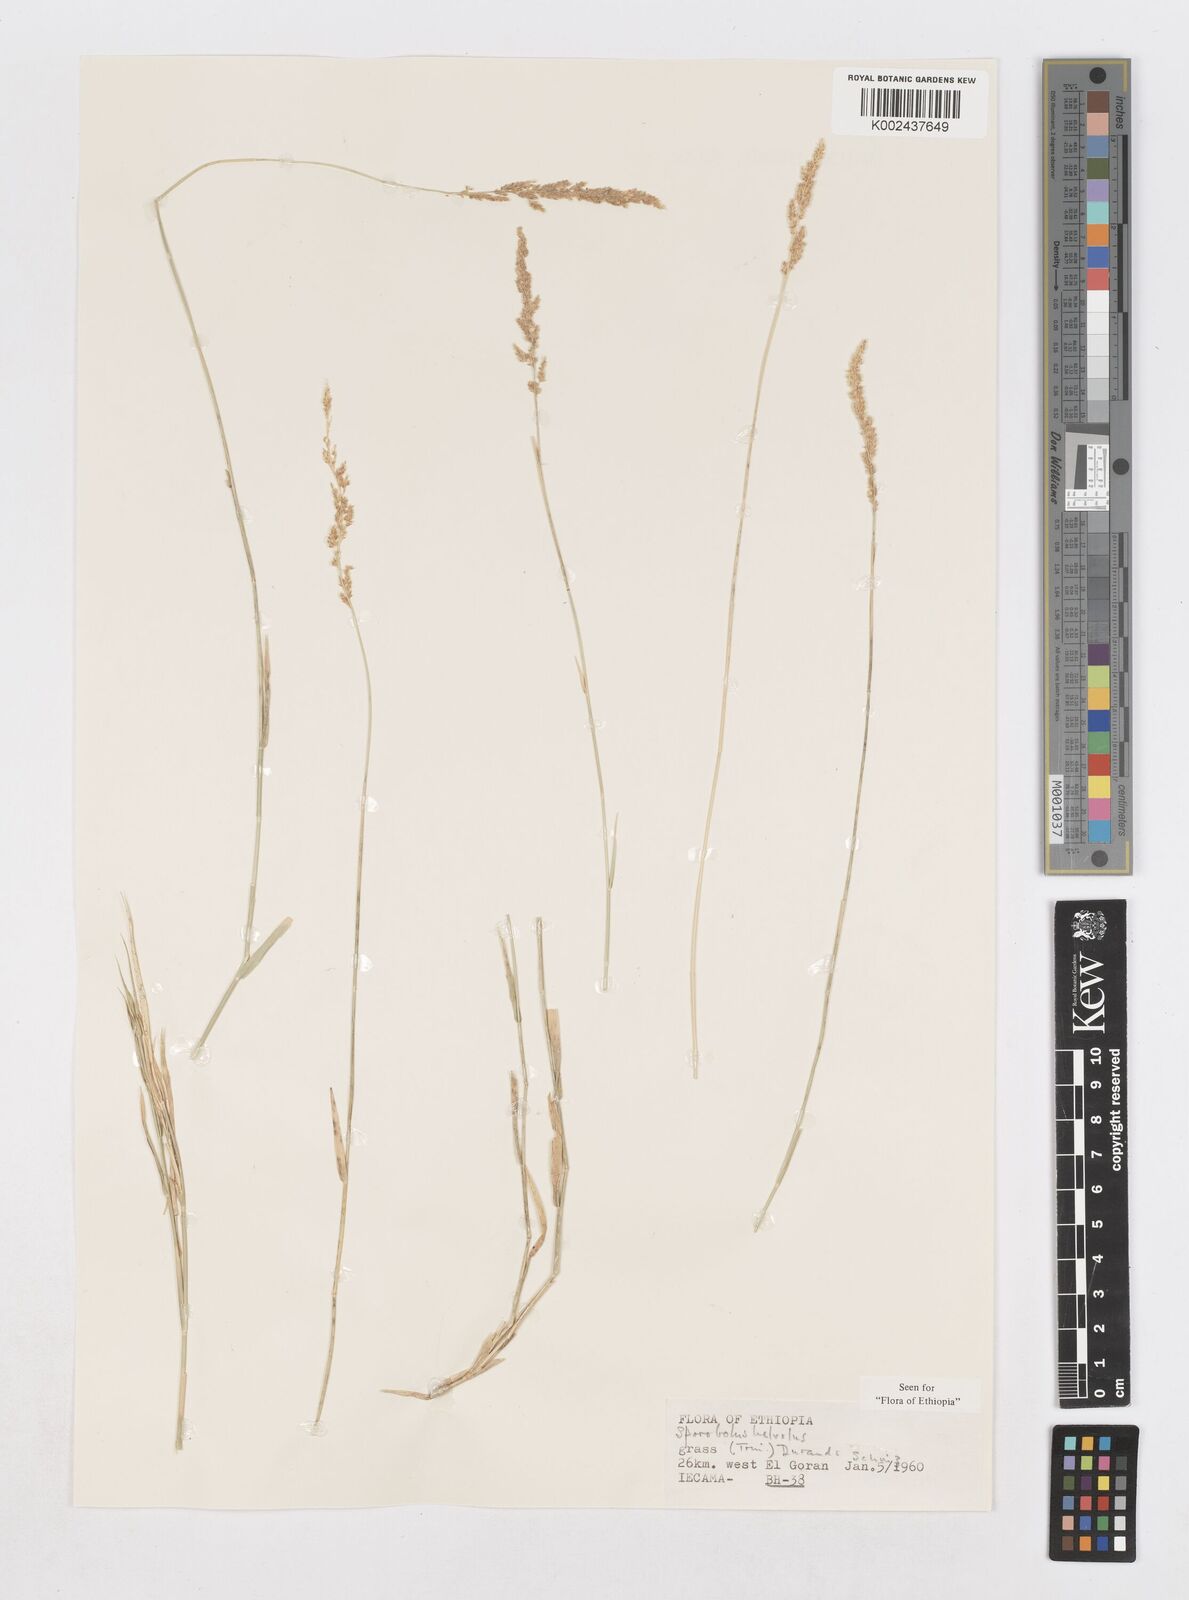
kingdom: Plantae
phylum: Tracheophyta
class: Liliopsida
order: Poales
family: Poaceae
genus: Sporobolus
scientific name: Sporobolus helvolus
